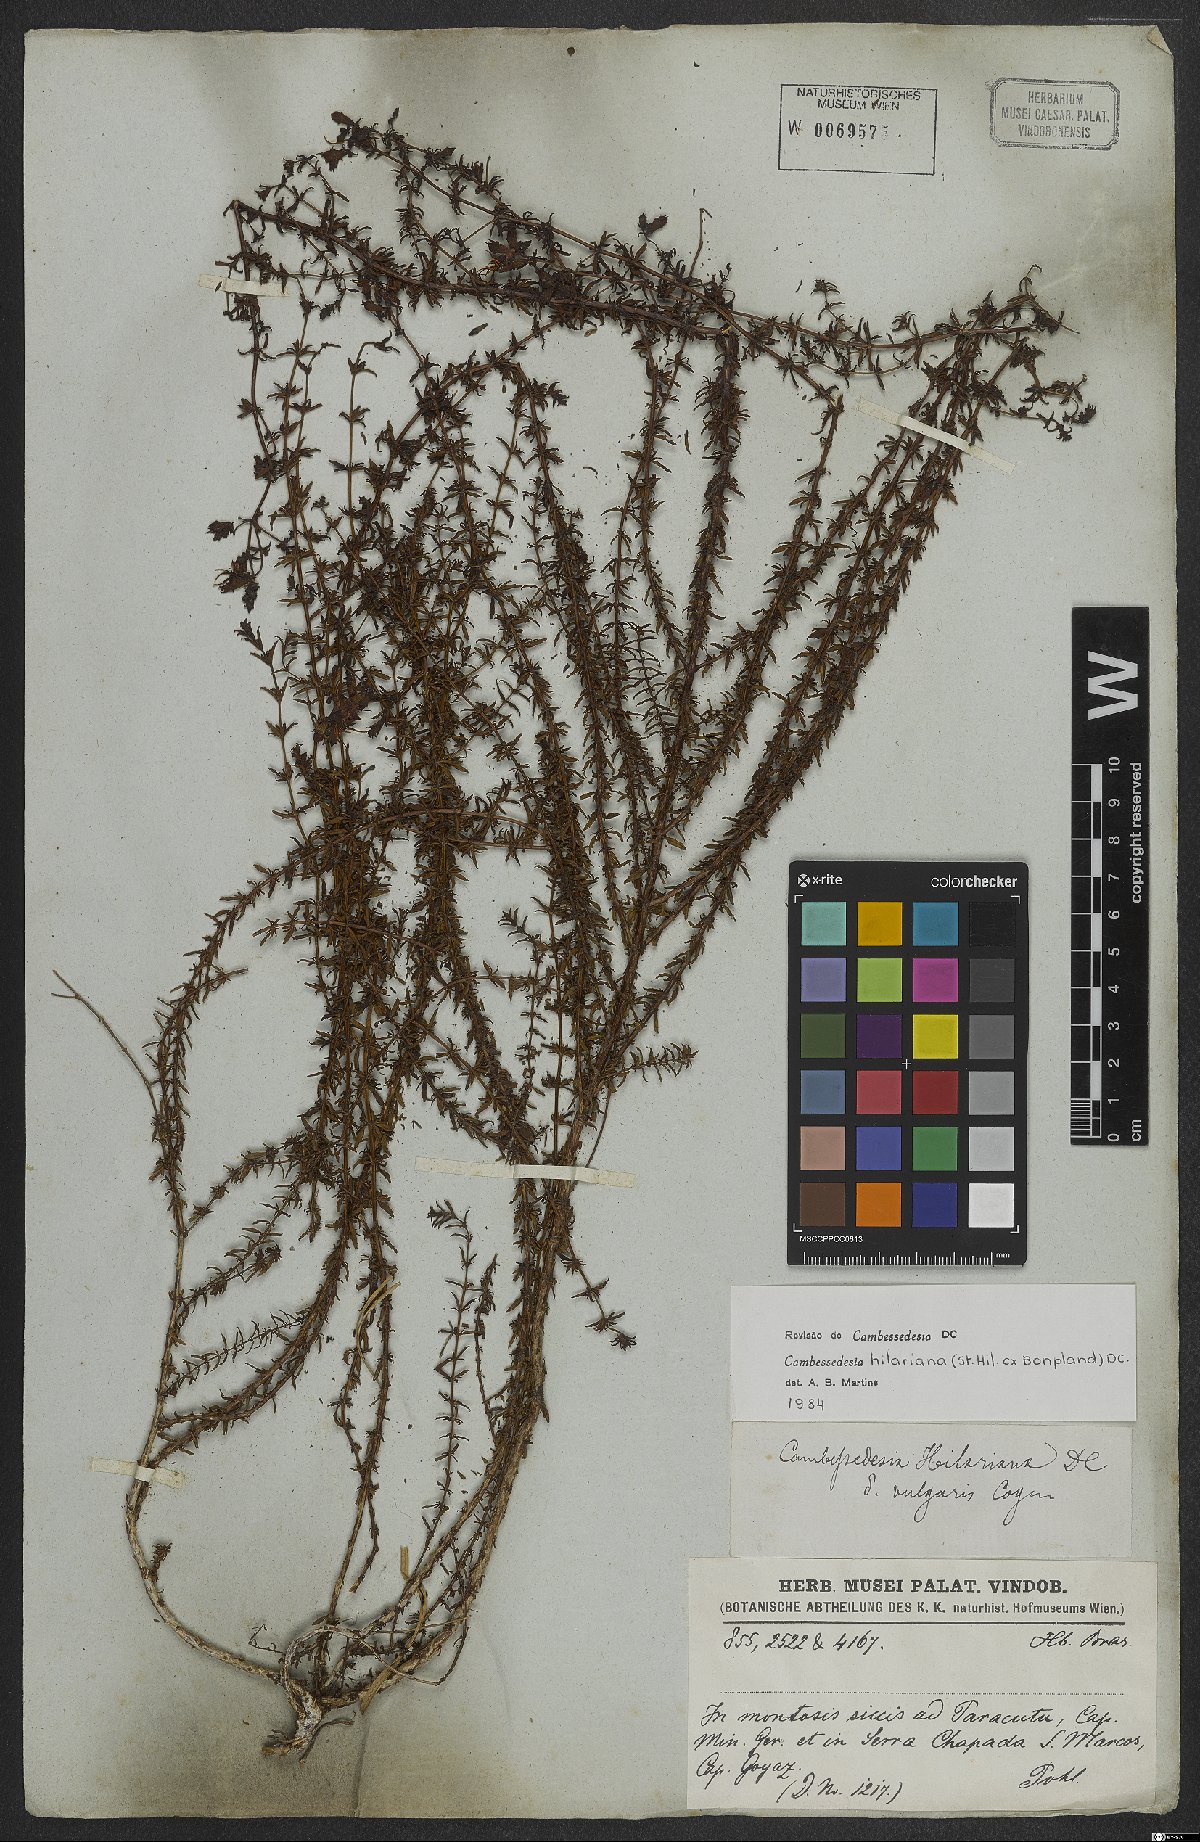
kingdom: Plantae
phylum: Tracheophyta
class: Magnoliopsida
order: Myrtales
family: Melastomataceae
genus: Cambessedesia
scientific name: Cambessedesia hilariana
